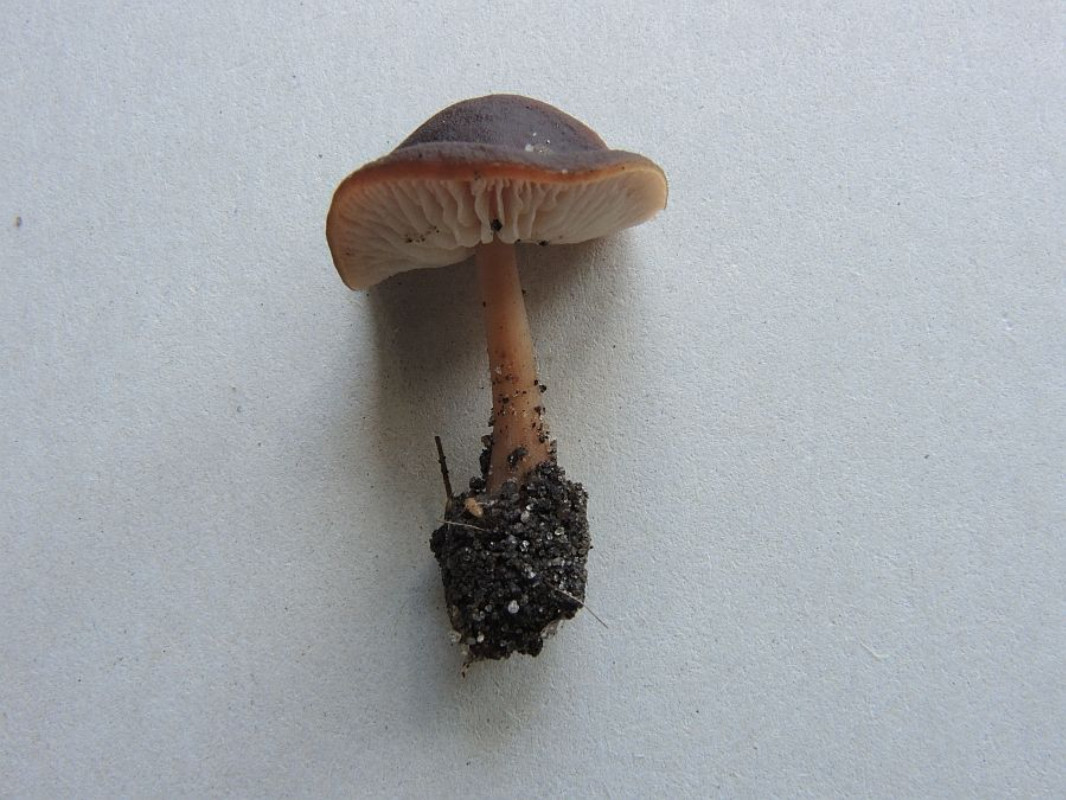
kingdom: Fungi
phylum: Basidiomycota
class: Agaricomycetes
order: Agaricales
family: Omphalotaceae
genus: Gymnopus
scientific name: Gymnopus ocior
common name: mørk fladhat
